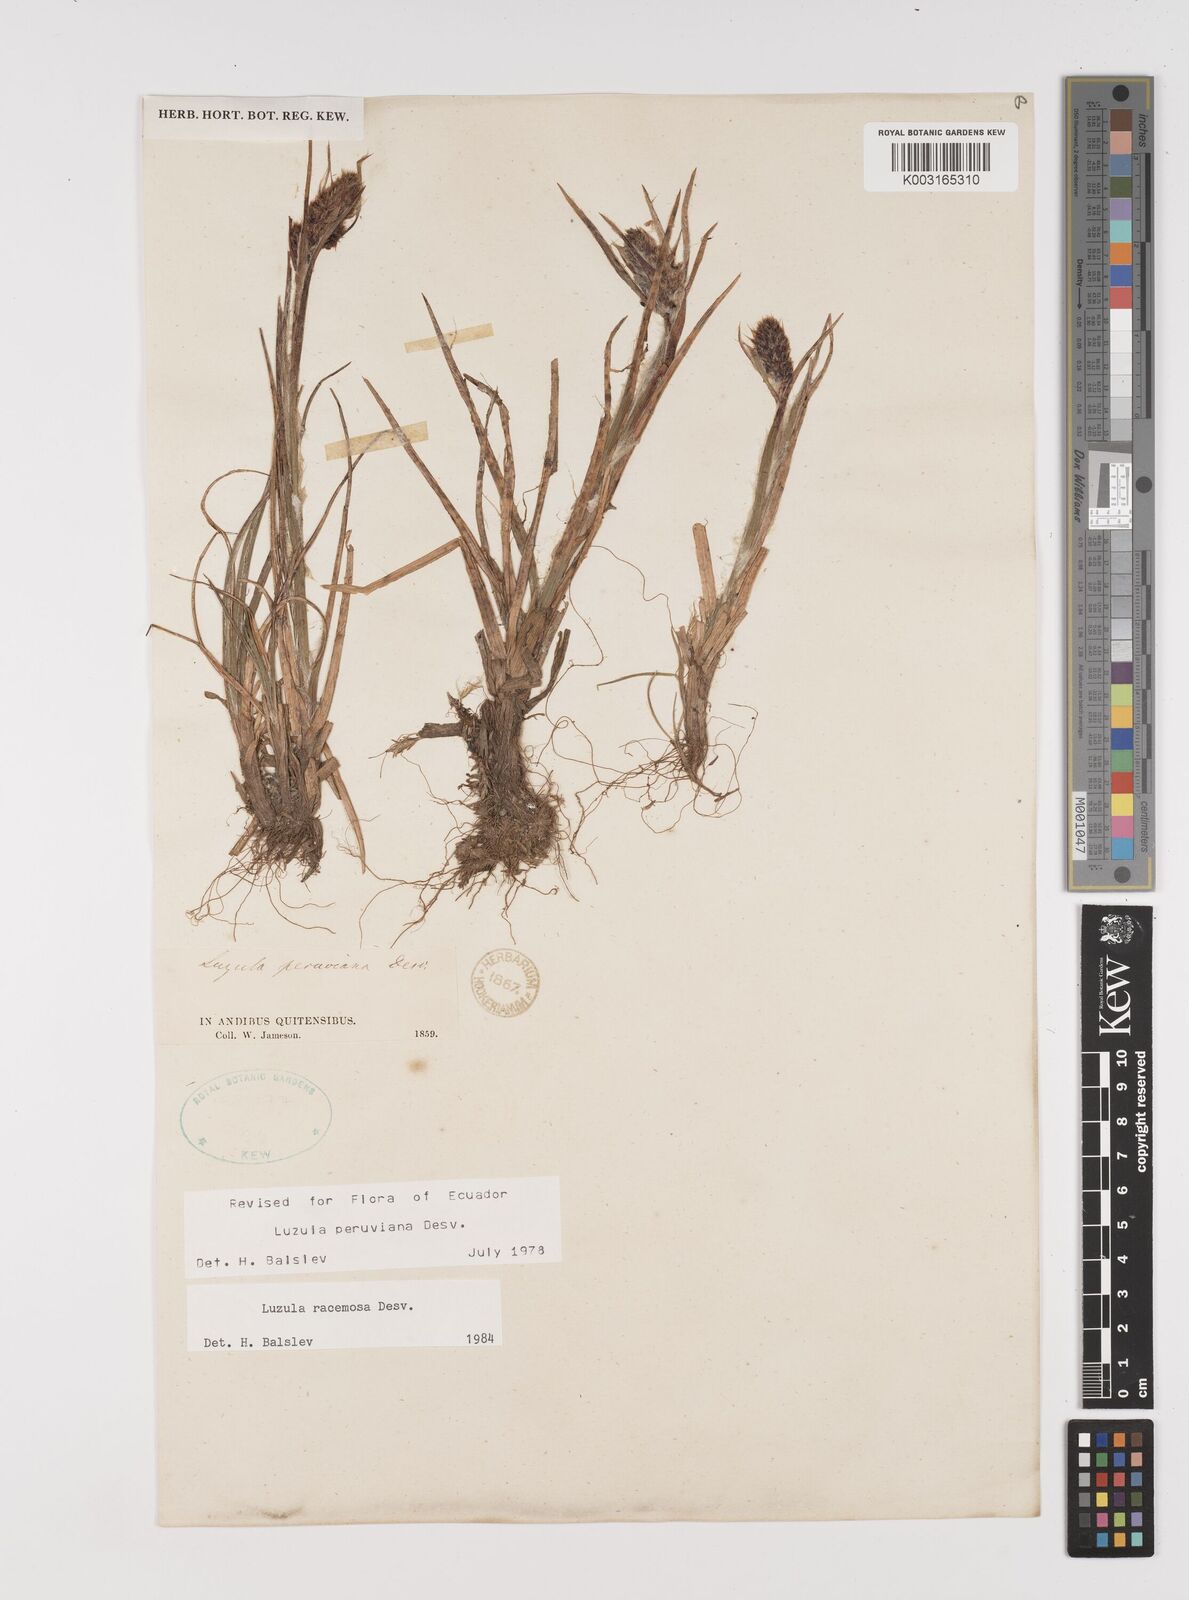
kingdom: Plantae
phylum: Tracheophyta
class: Liliopsida
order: Poales
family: Juncaceae
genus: Luzula
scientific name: Luzula racemosa
